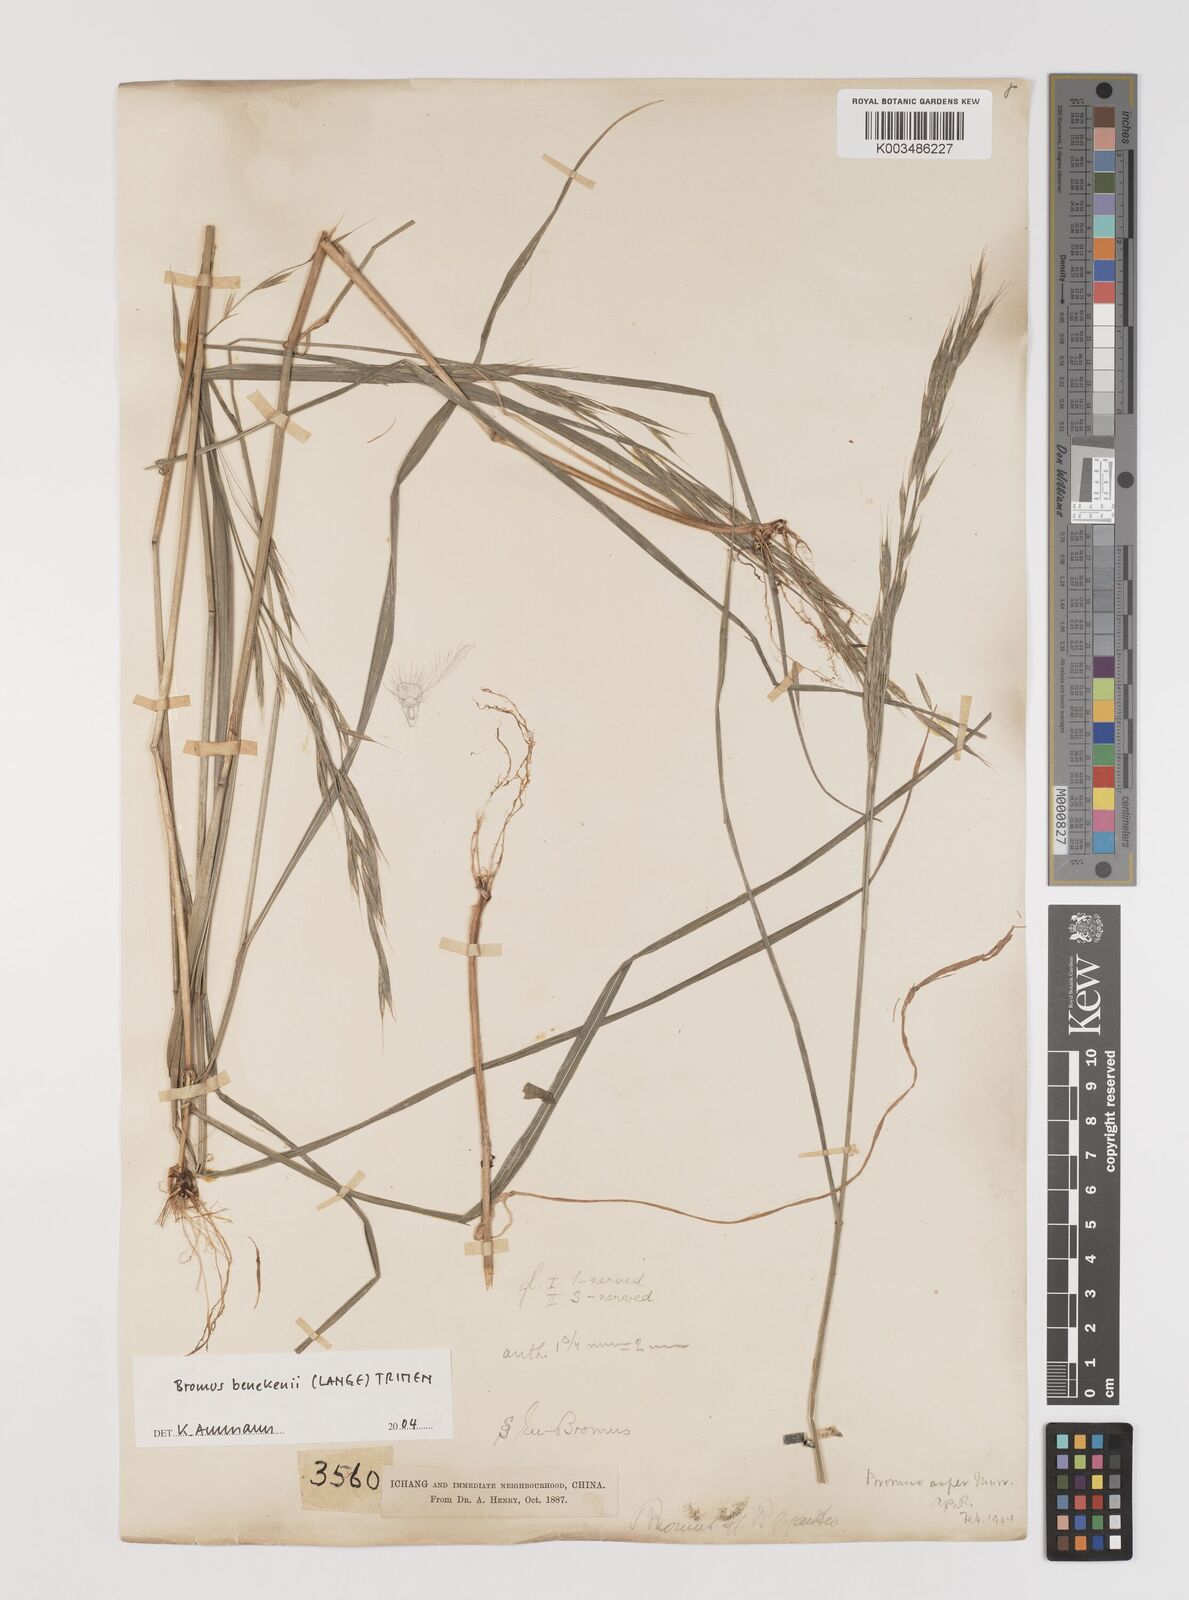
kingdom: Plantae
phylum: Tracheophyta
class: Liliopsida
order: Poales
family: Poaceae
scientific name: Poaceae
